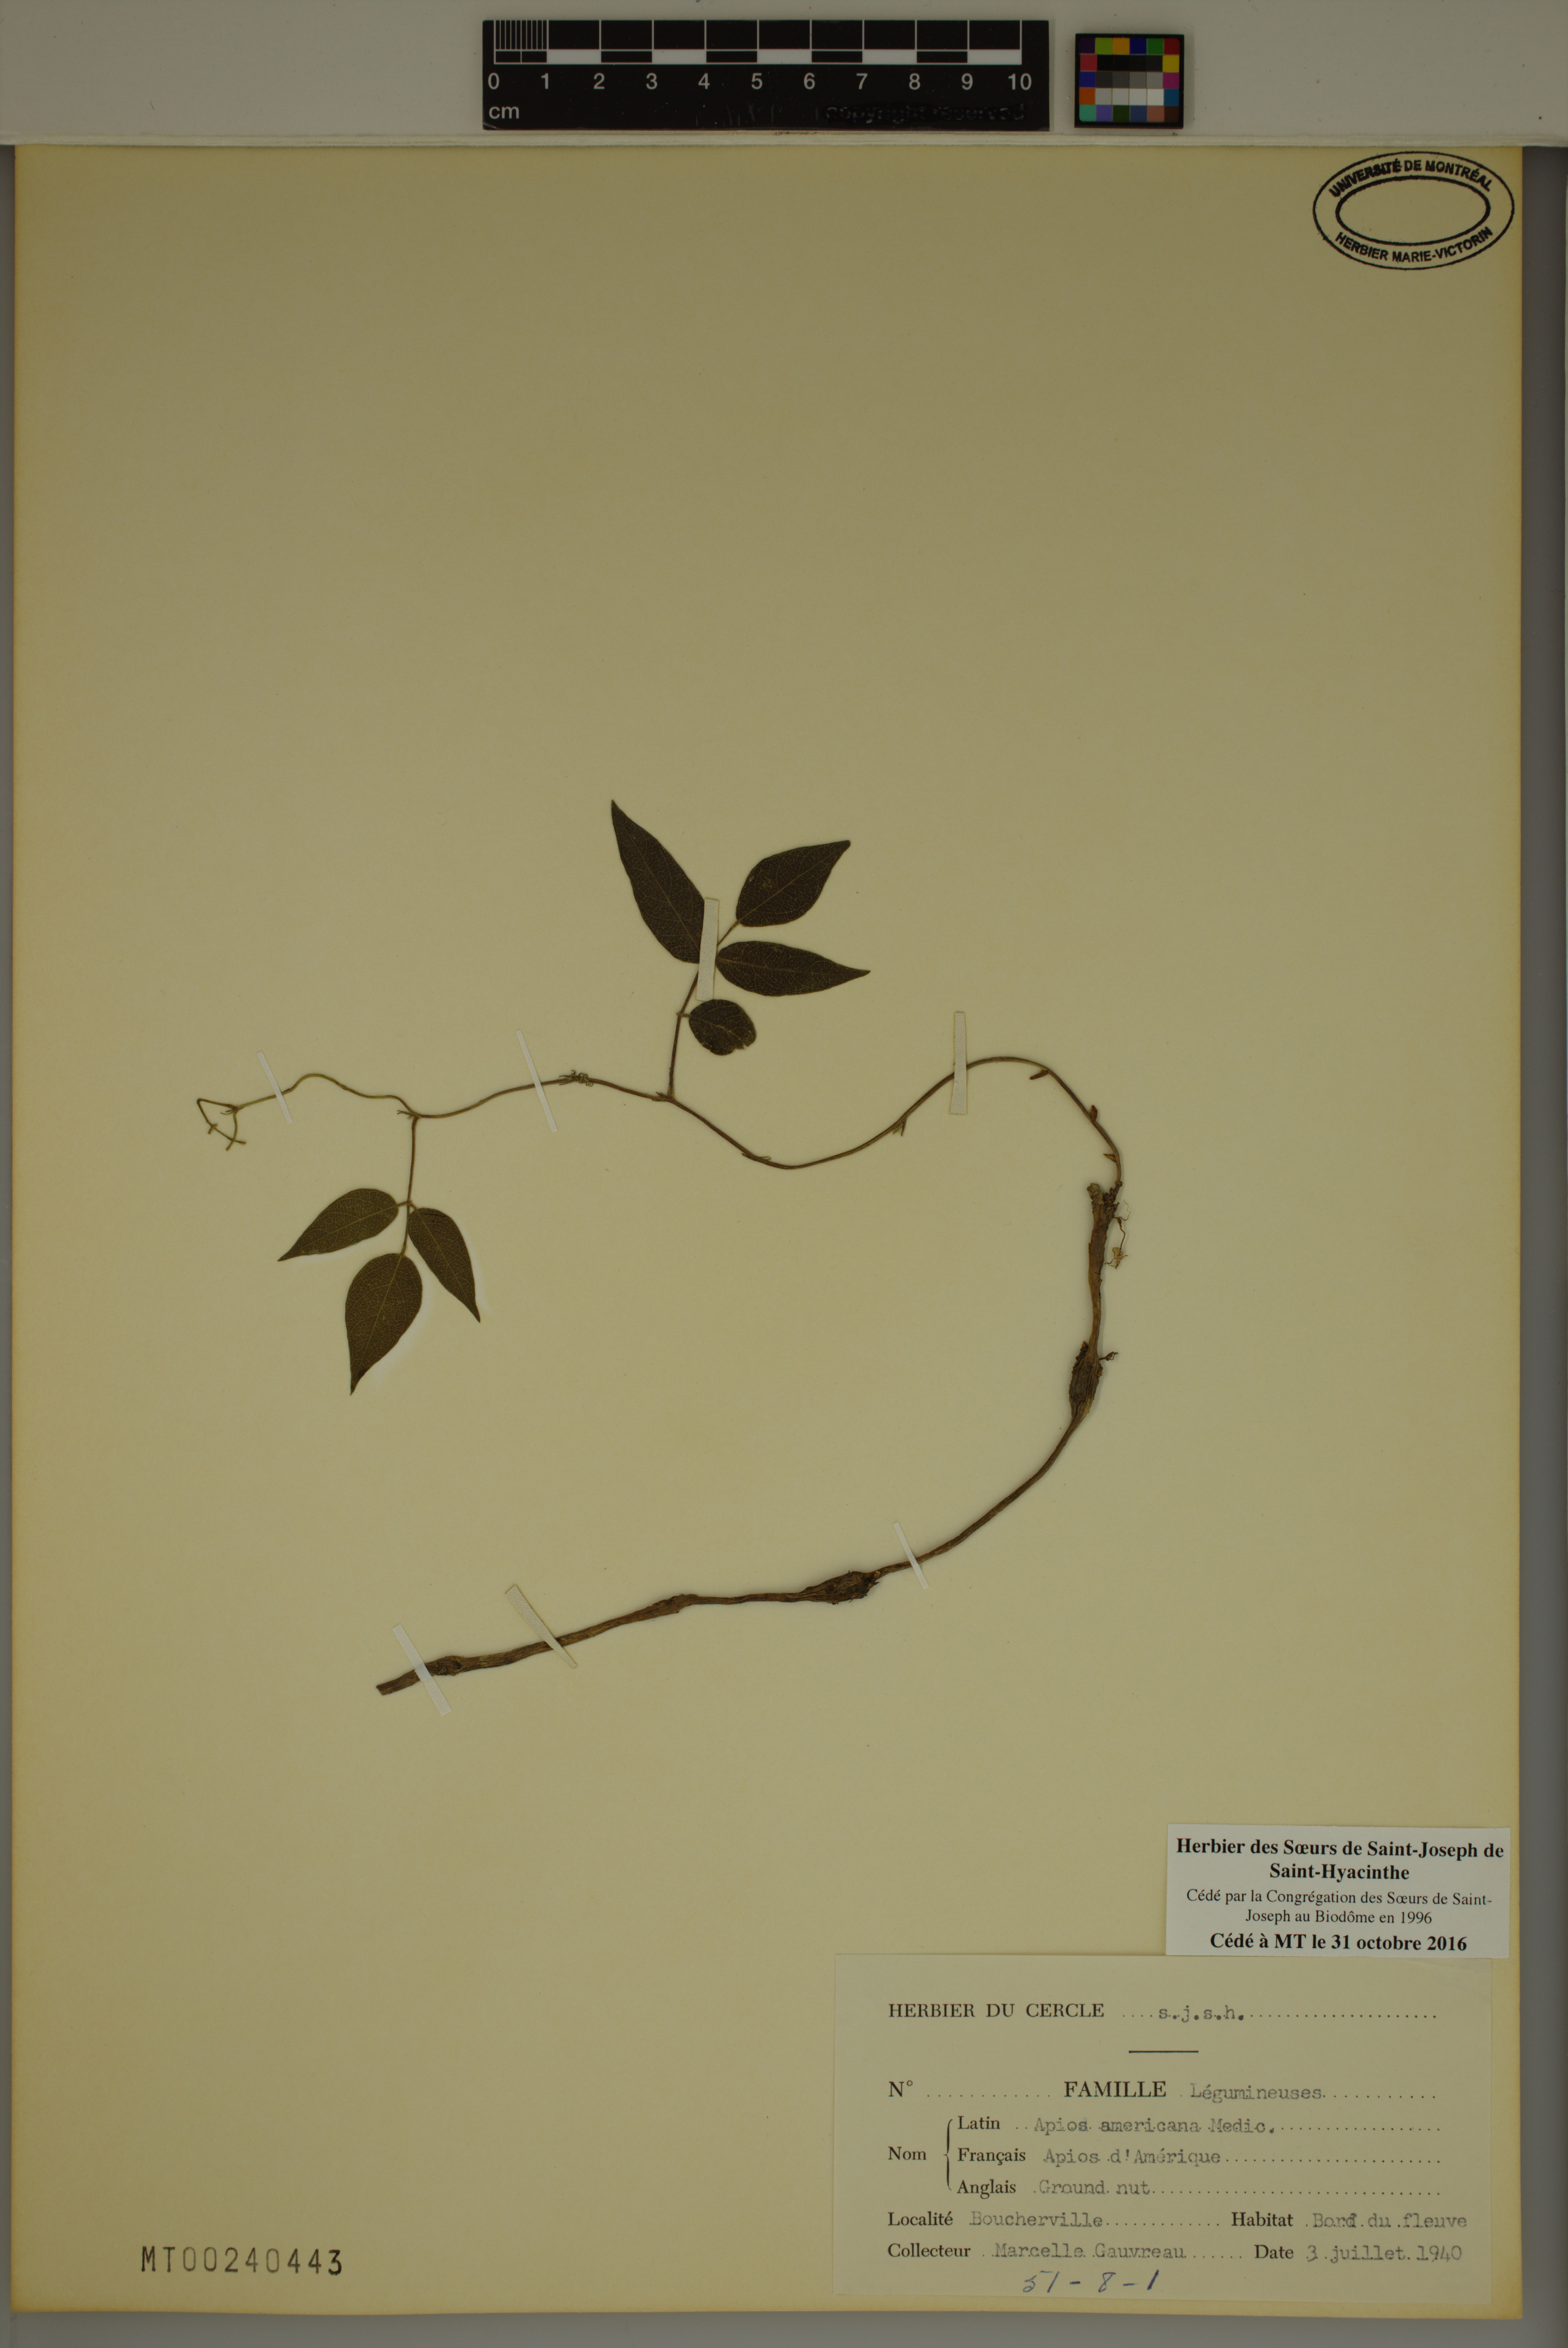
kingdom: Plantae
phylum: Tracheophyta
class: Magnoliopsida
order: Fabales
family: Fabaceae
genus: Apios
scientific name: Apios americana
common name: American potato-bean
